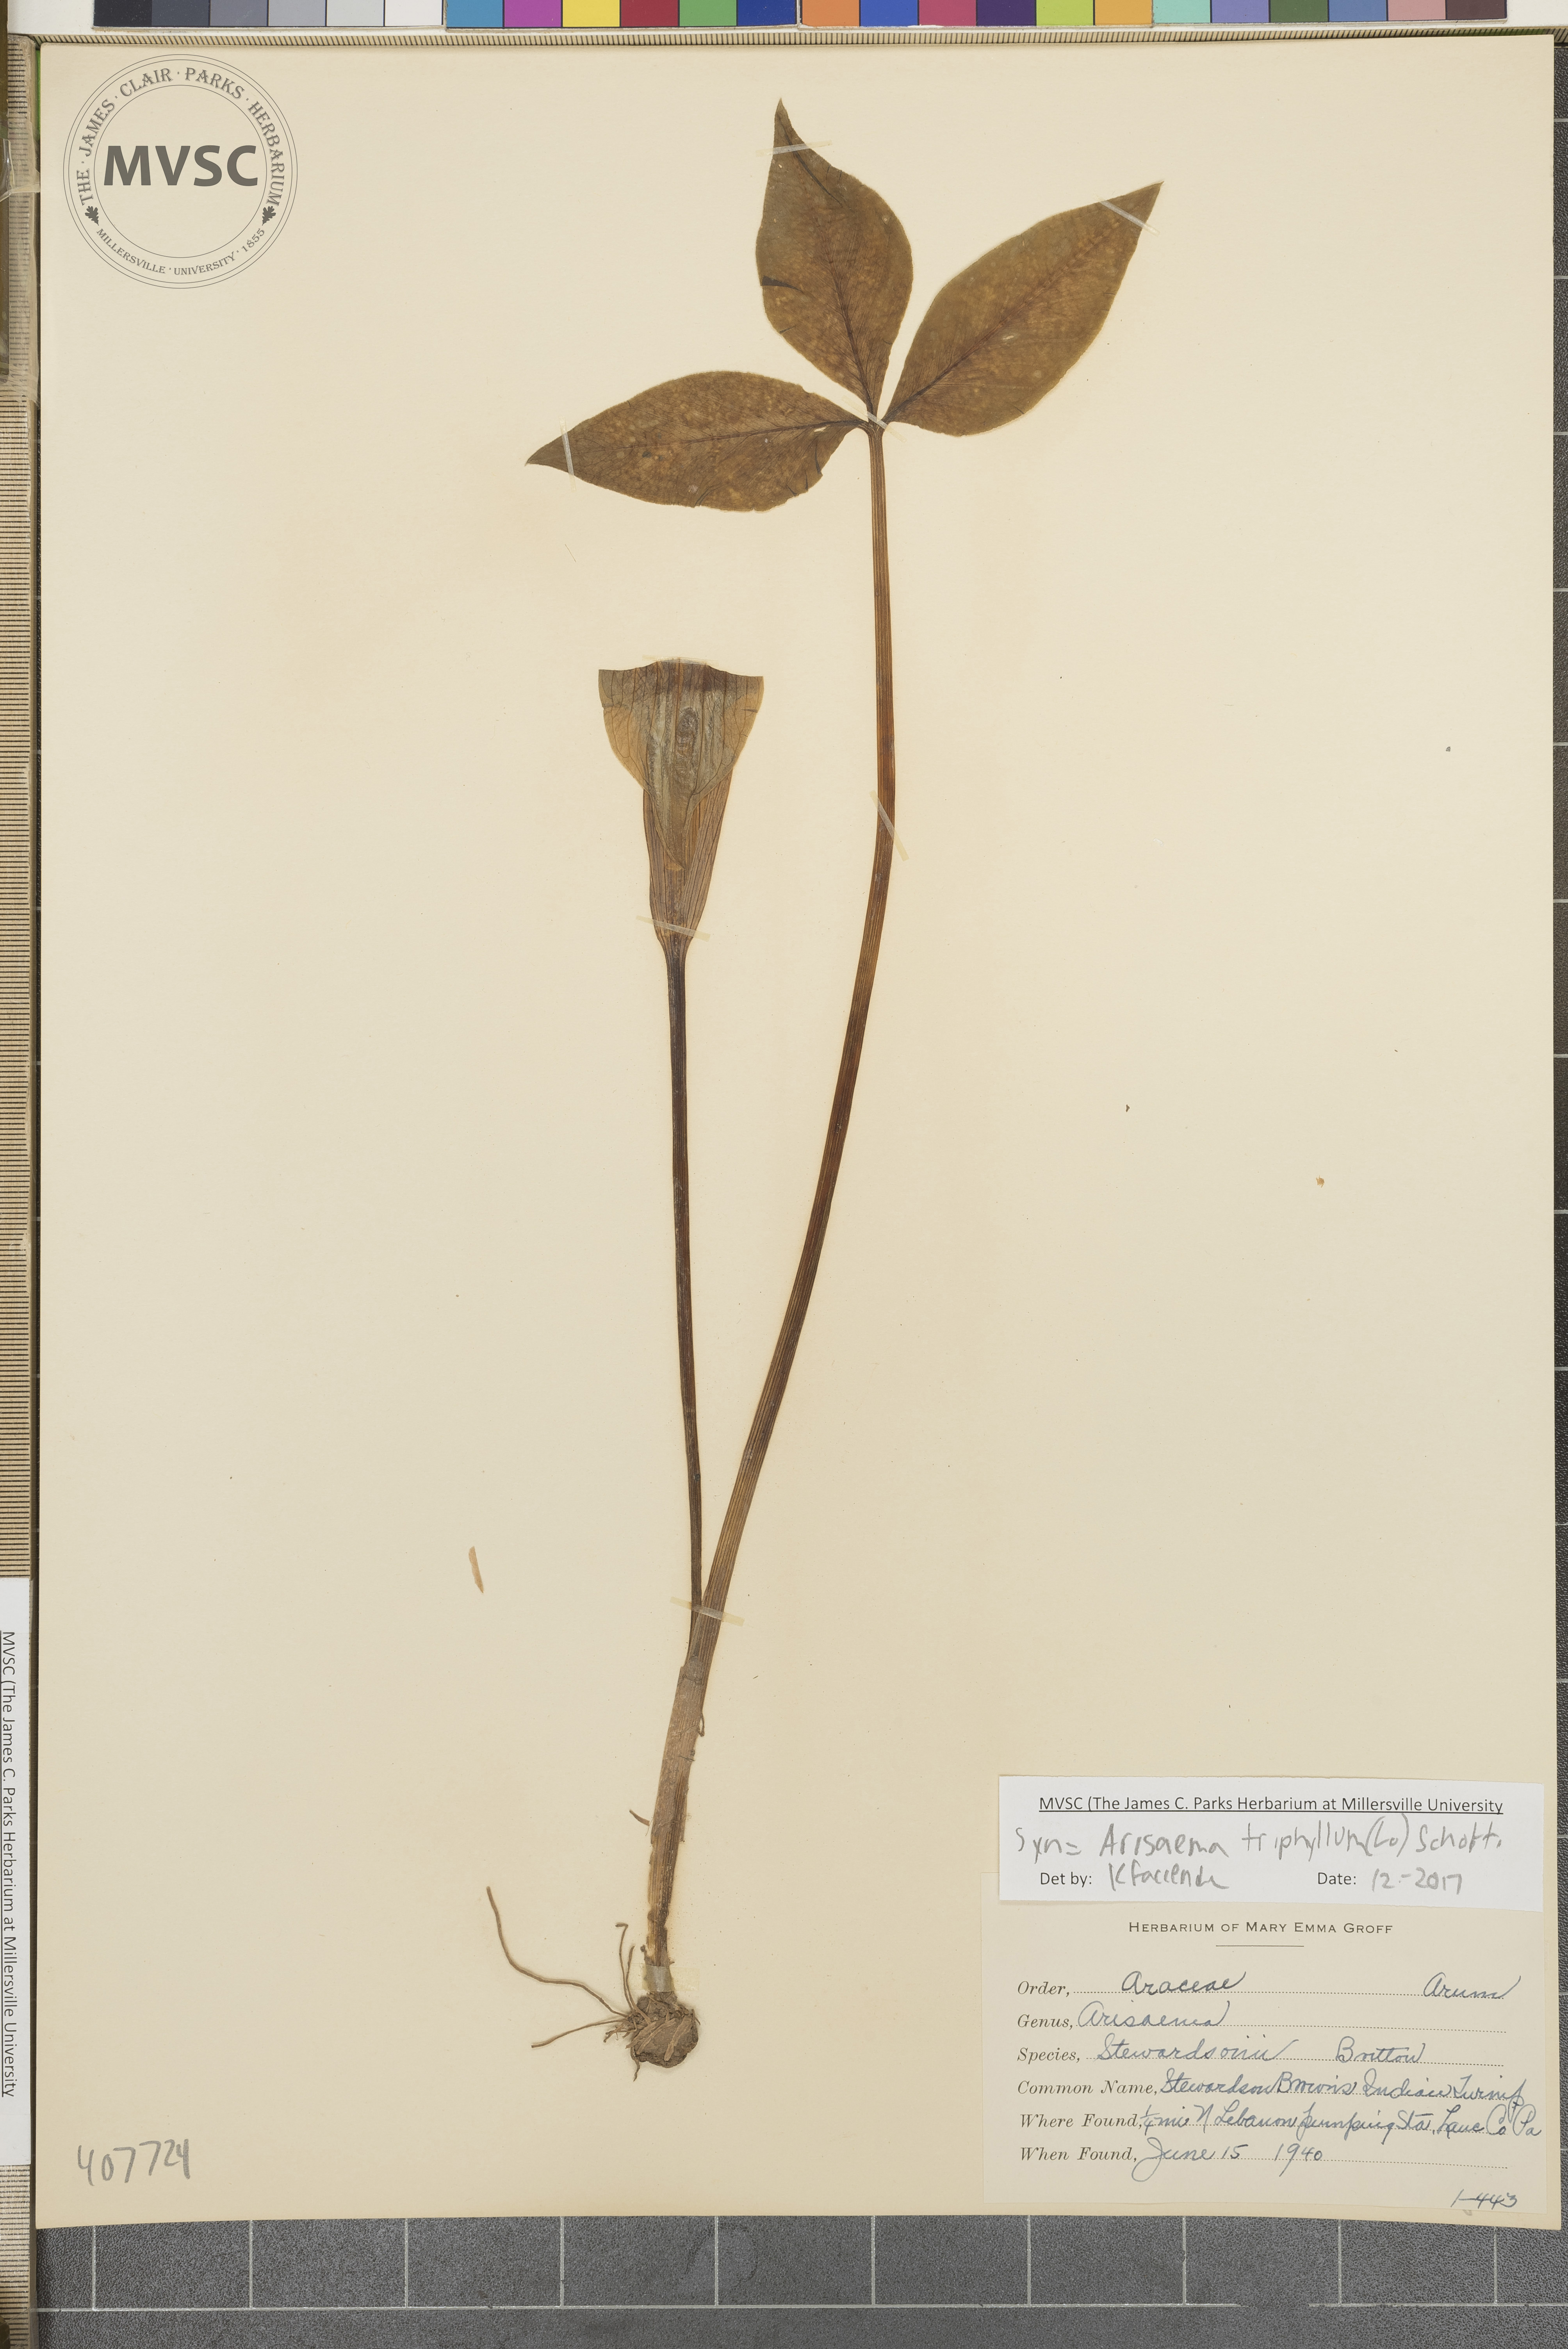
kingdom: Plantae
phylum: Tracheophyta
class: Liliopsida
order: Alismatales
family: Araceae
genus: Arisaema
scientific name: Arisaema triphyllum
